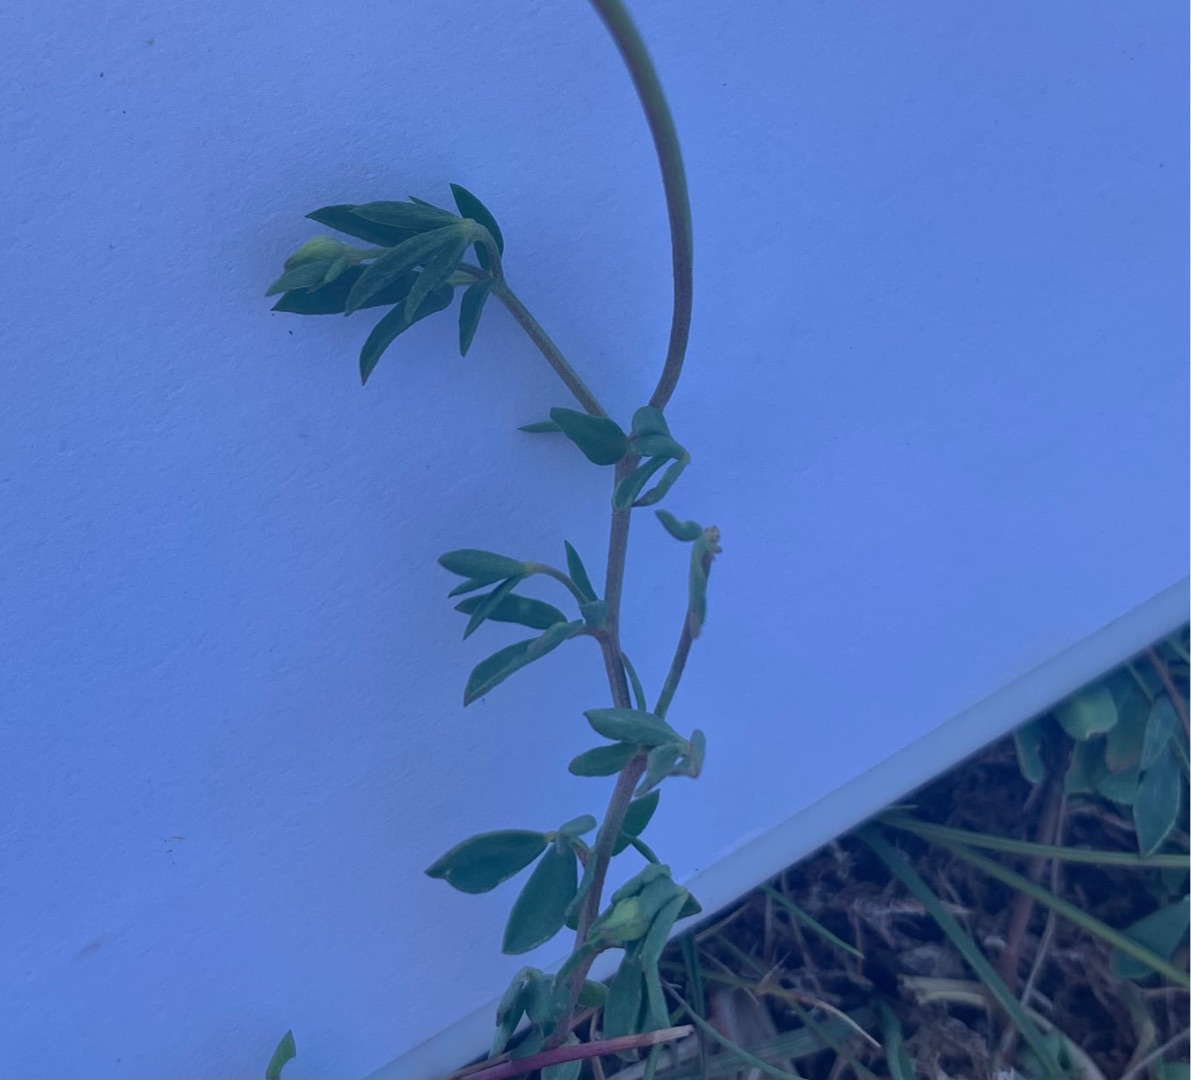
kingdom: Plantae
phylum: Tracheophyta
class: Magnoliopsida
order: Fabales
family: Fabaceae
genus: Lotus
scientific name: Lotus corniculatus
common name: Almindelig kællingetand
